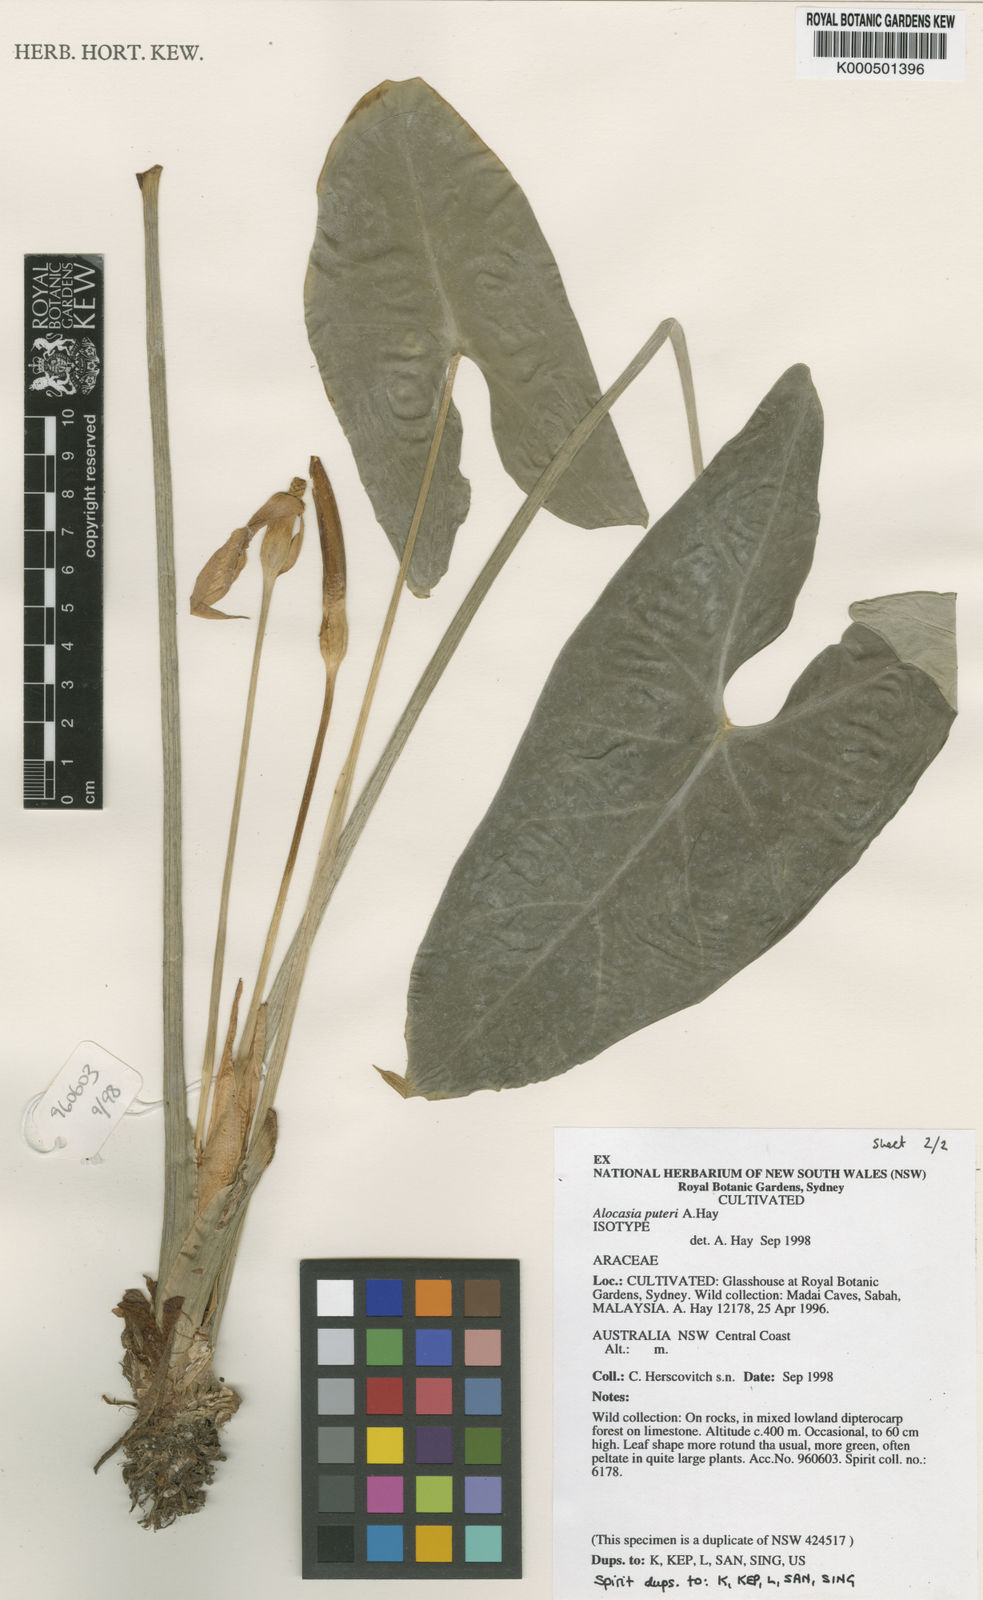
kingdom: Plantae
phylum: Tracheophyta
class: Liliopsida
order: Alismatales
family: Araceae
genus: Alocasia
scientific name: Alocasia puteri
